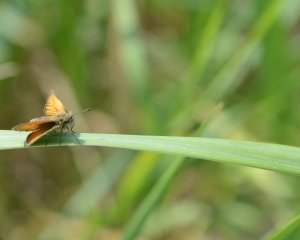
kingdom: Animalia
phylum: Arthropoda
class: Insecta
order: Lepidoptera
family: Hesperiidae
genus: Thymelicus
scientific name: Thymelicus lineola
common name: European Skipper
